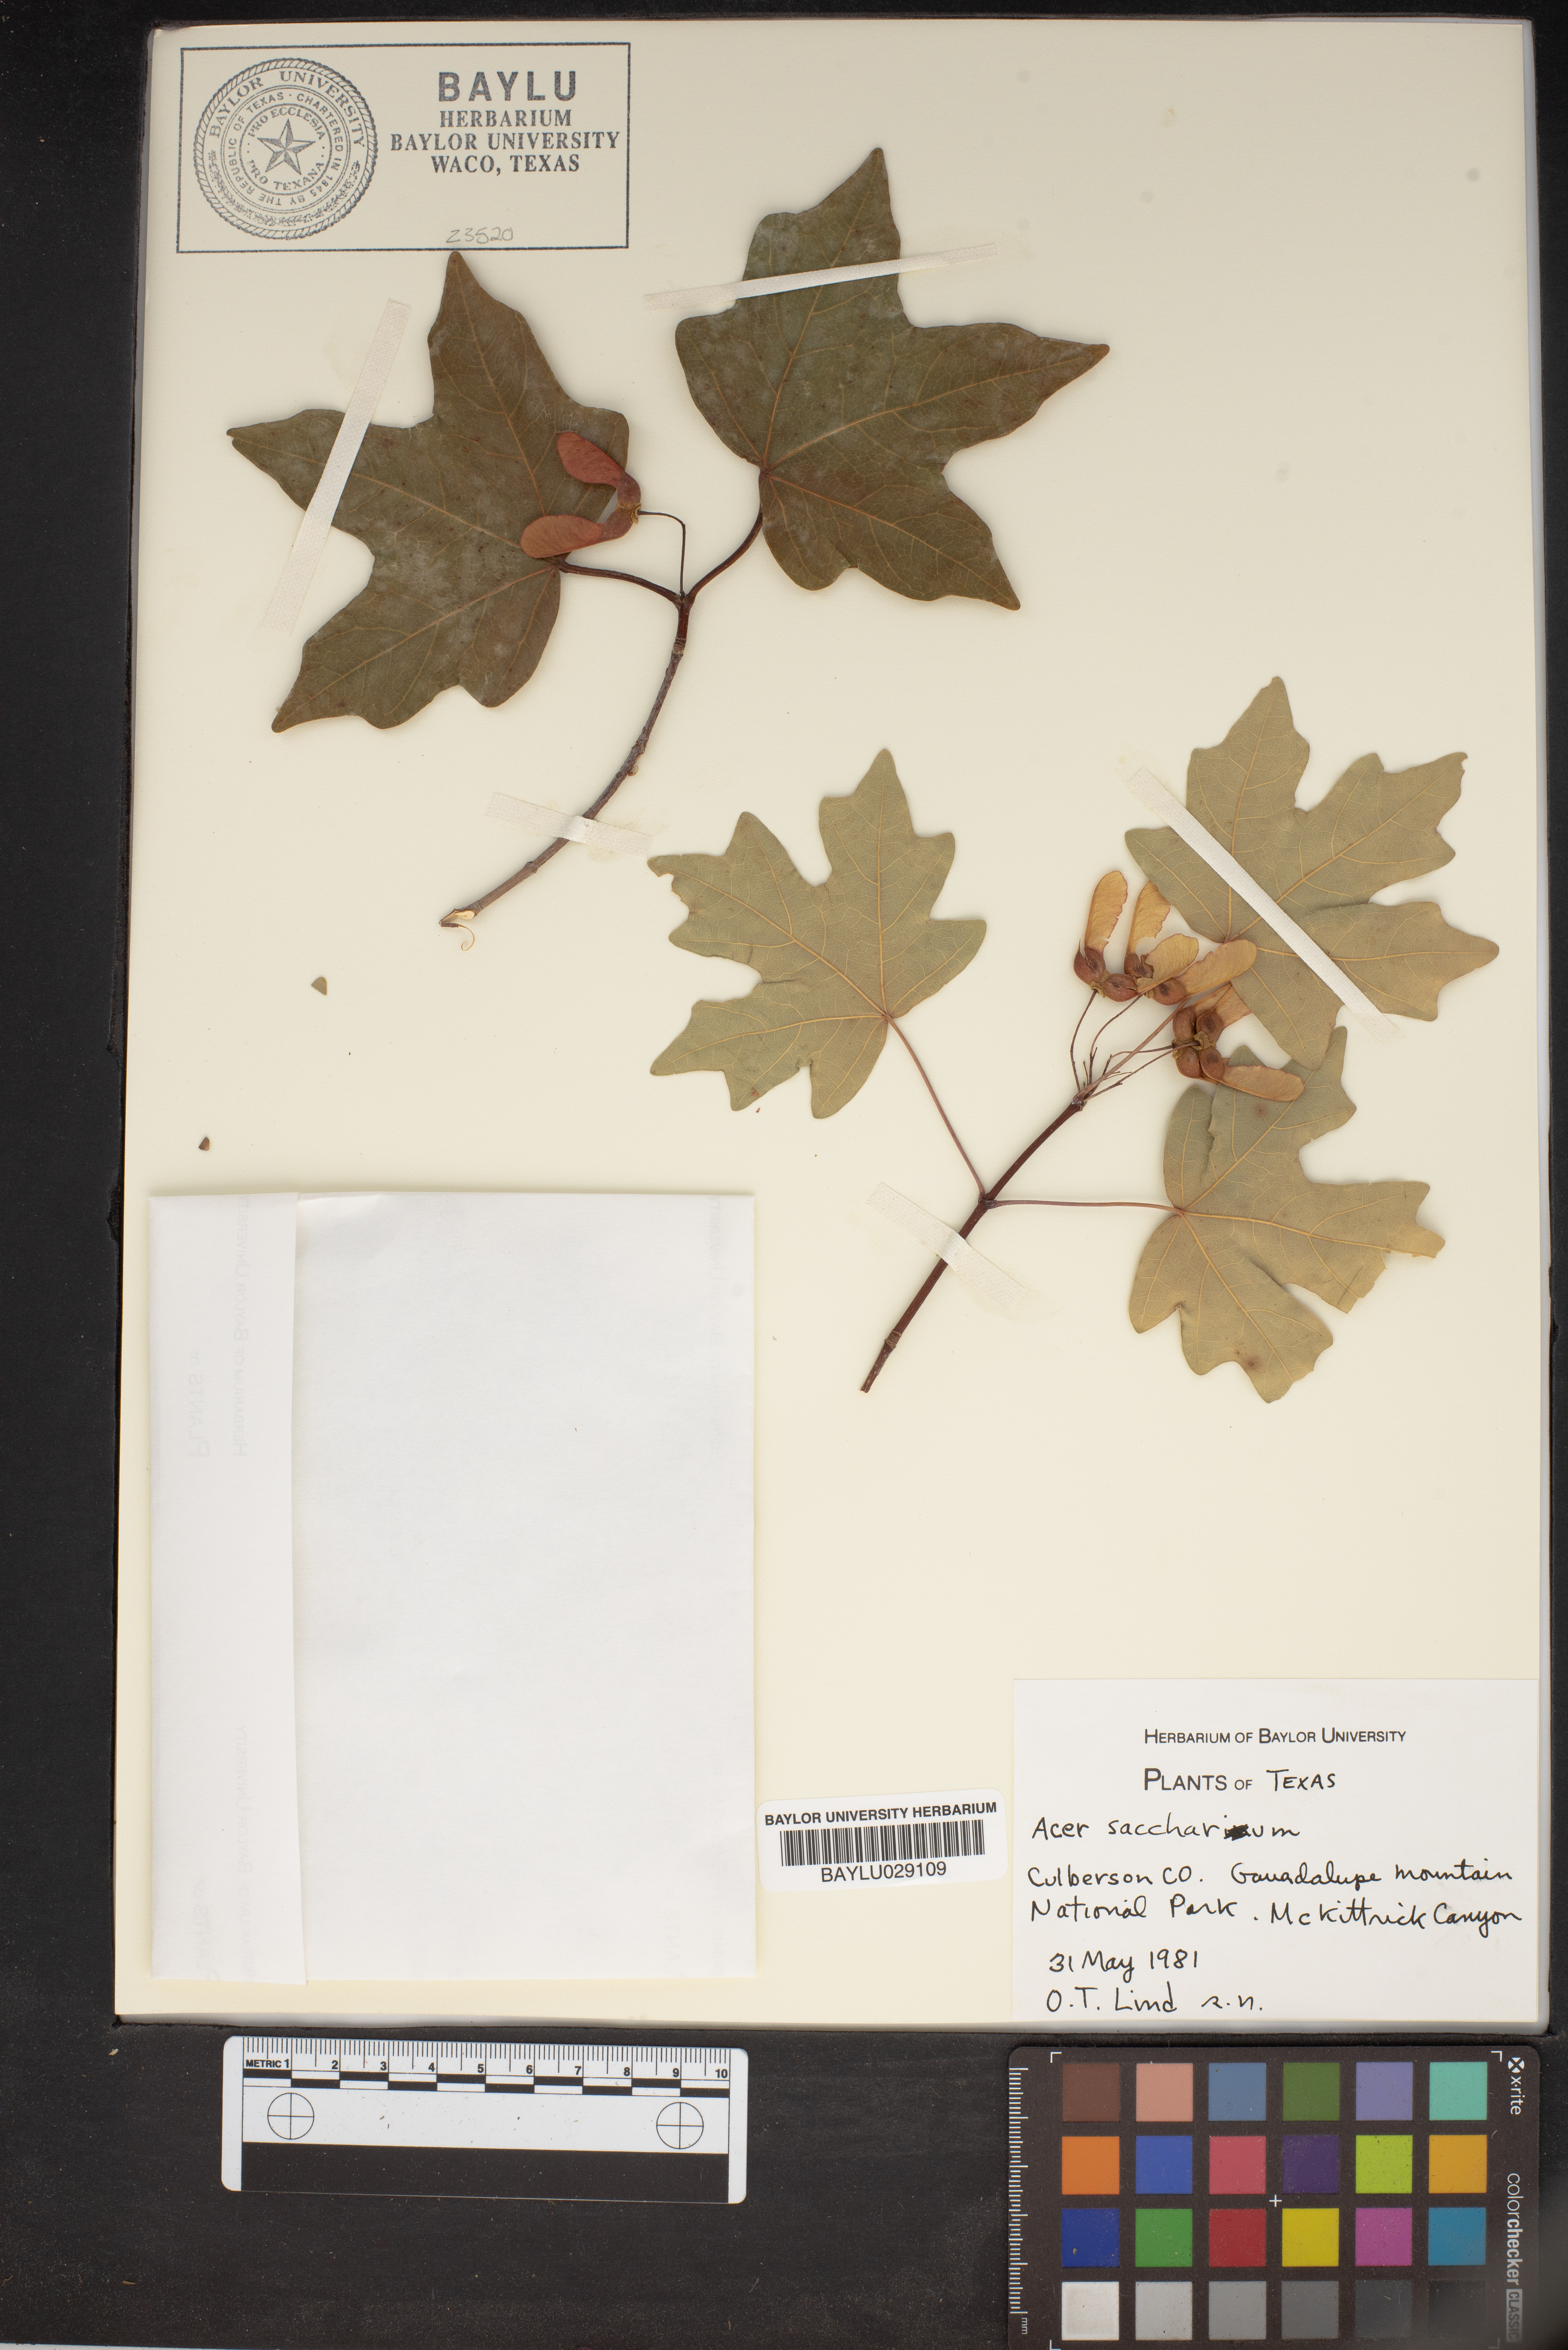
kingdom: Plantae
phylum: Tracheophyta
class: Magnoliopsida
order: Sapindales
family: Sapindaceae
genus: Acer
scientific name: Acer saccharinum
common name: Silver maple
